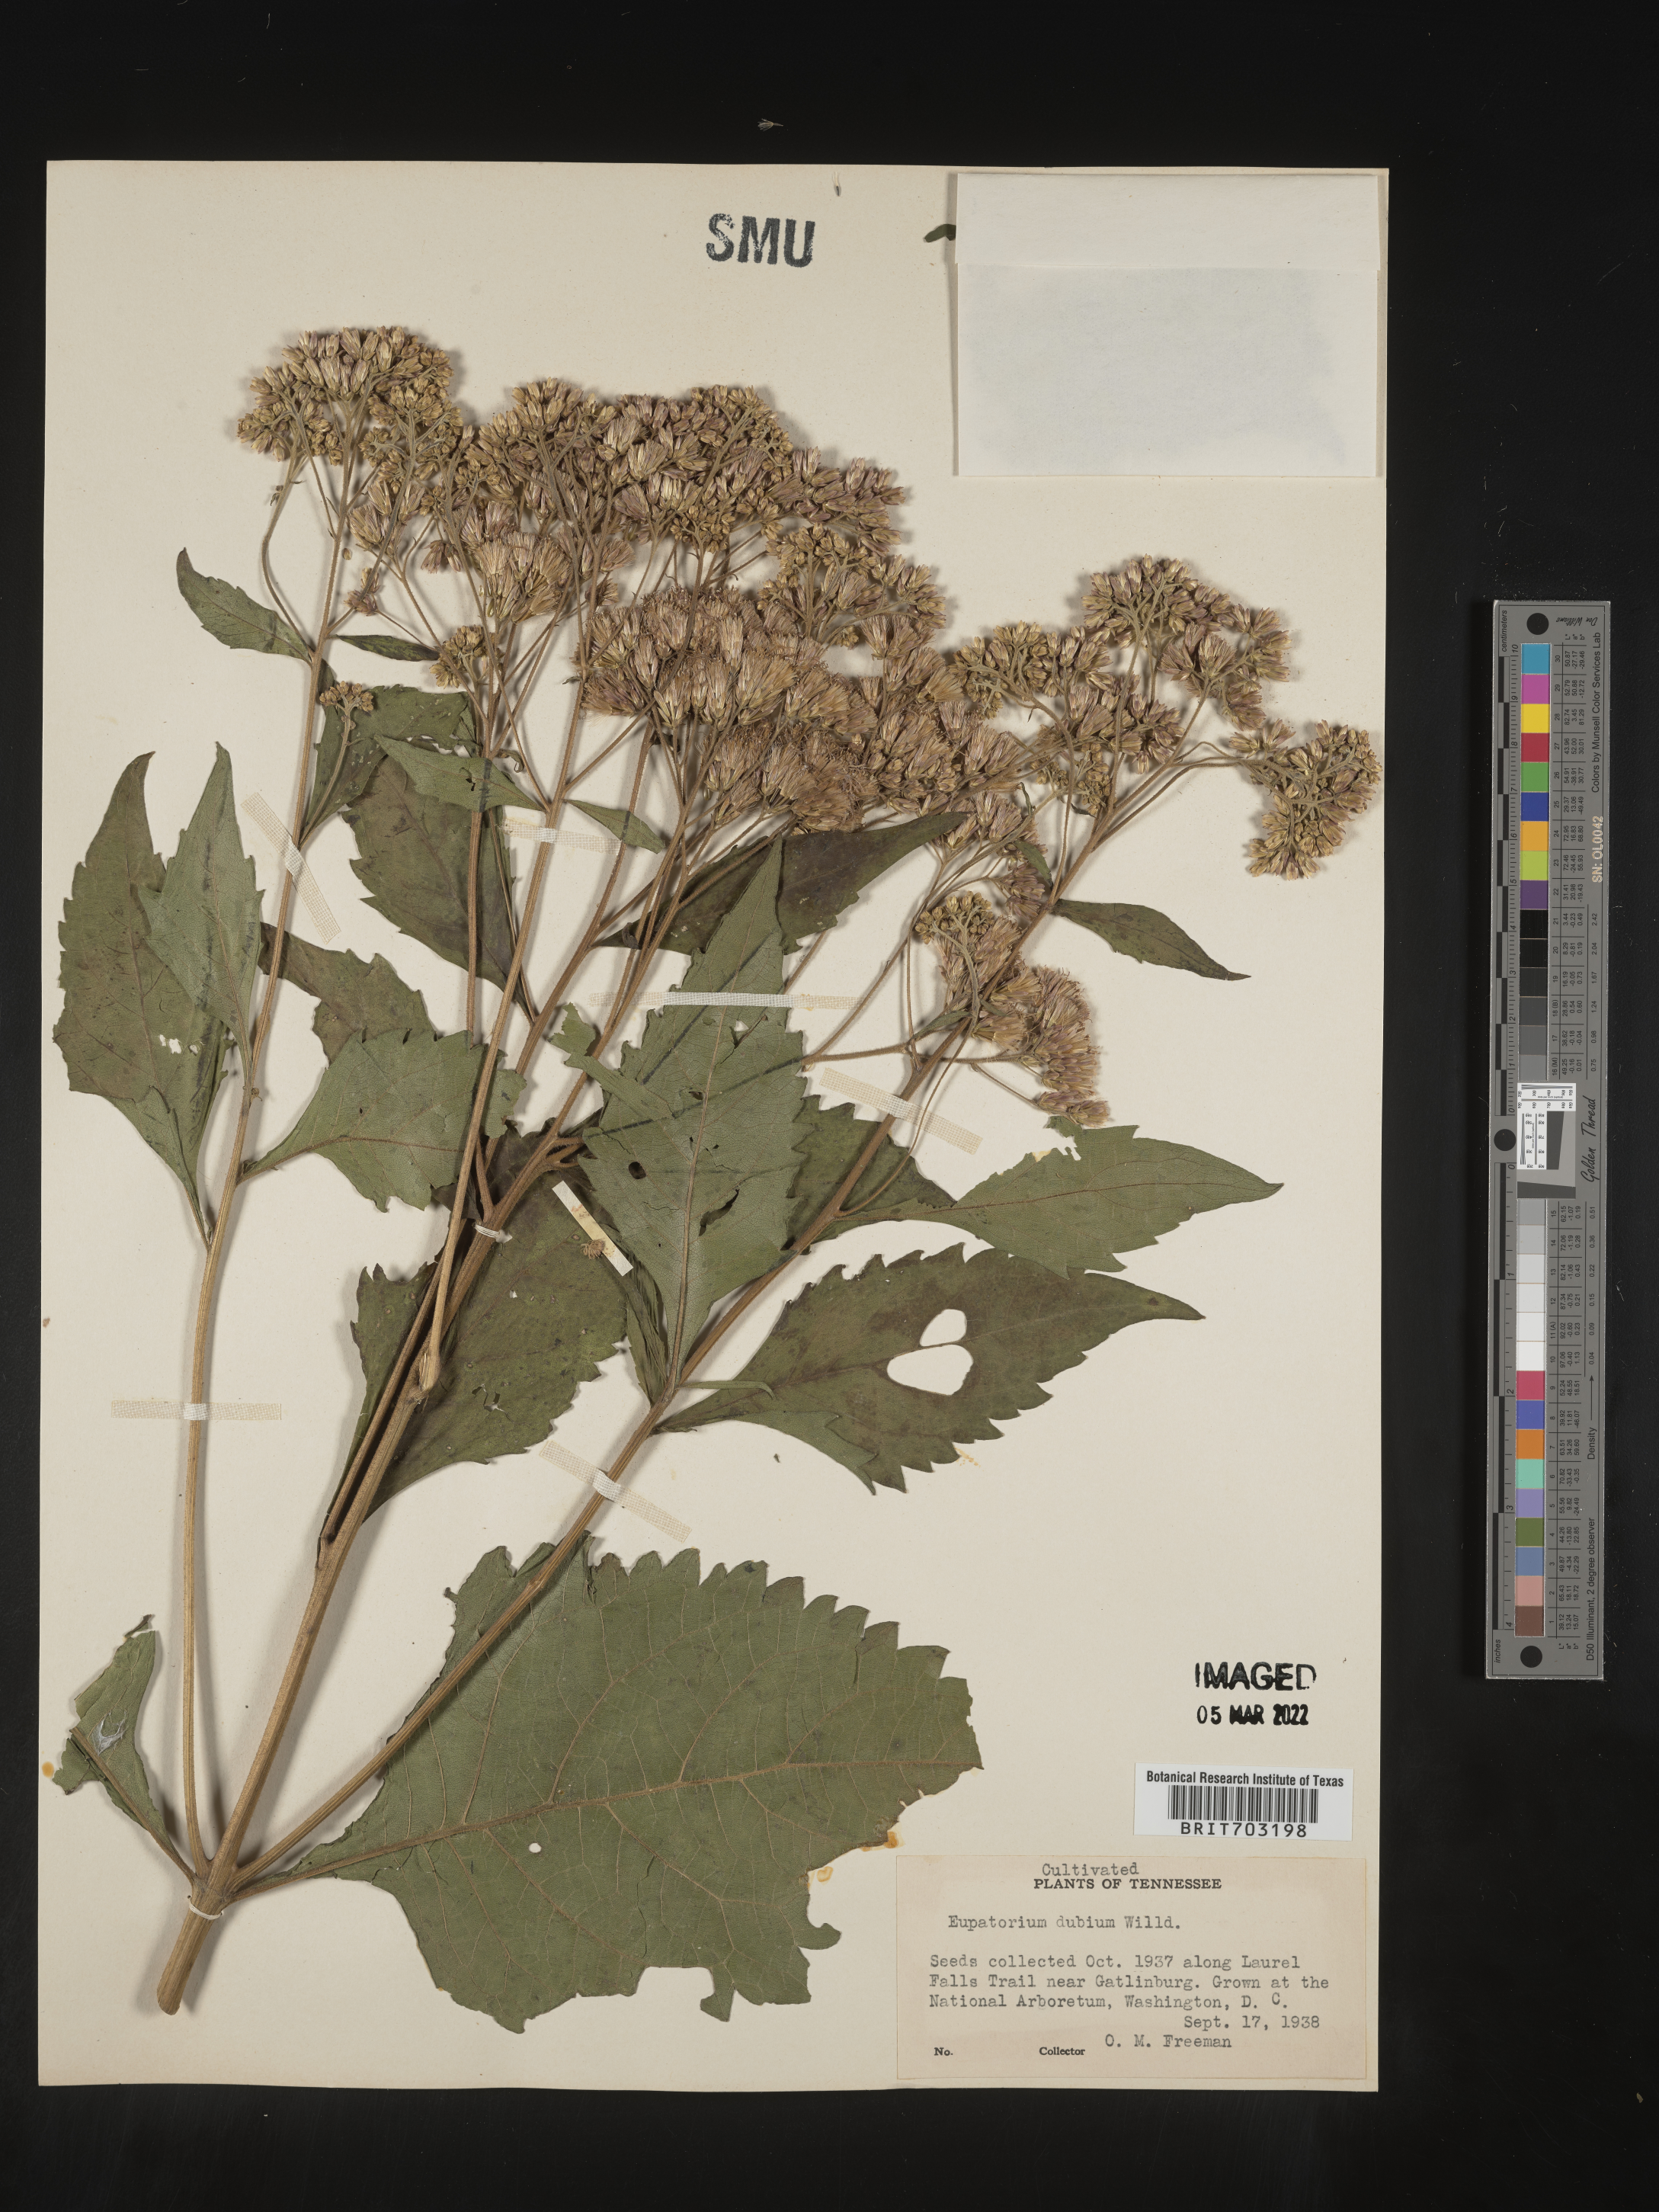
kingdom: Plantae
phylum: Tracheophyta
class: Magnoliopsida
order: Asterales
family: Asteraceae
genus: Eupatorium
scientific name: Eupatorium
